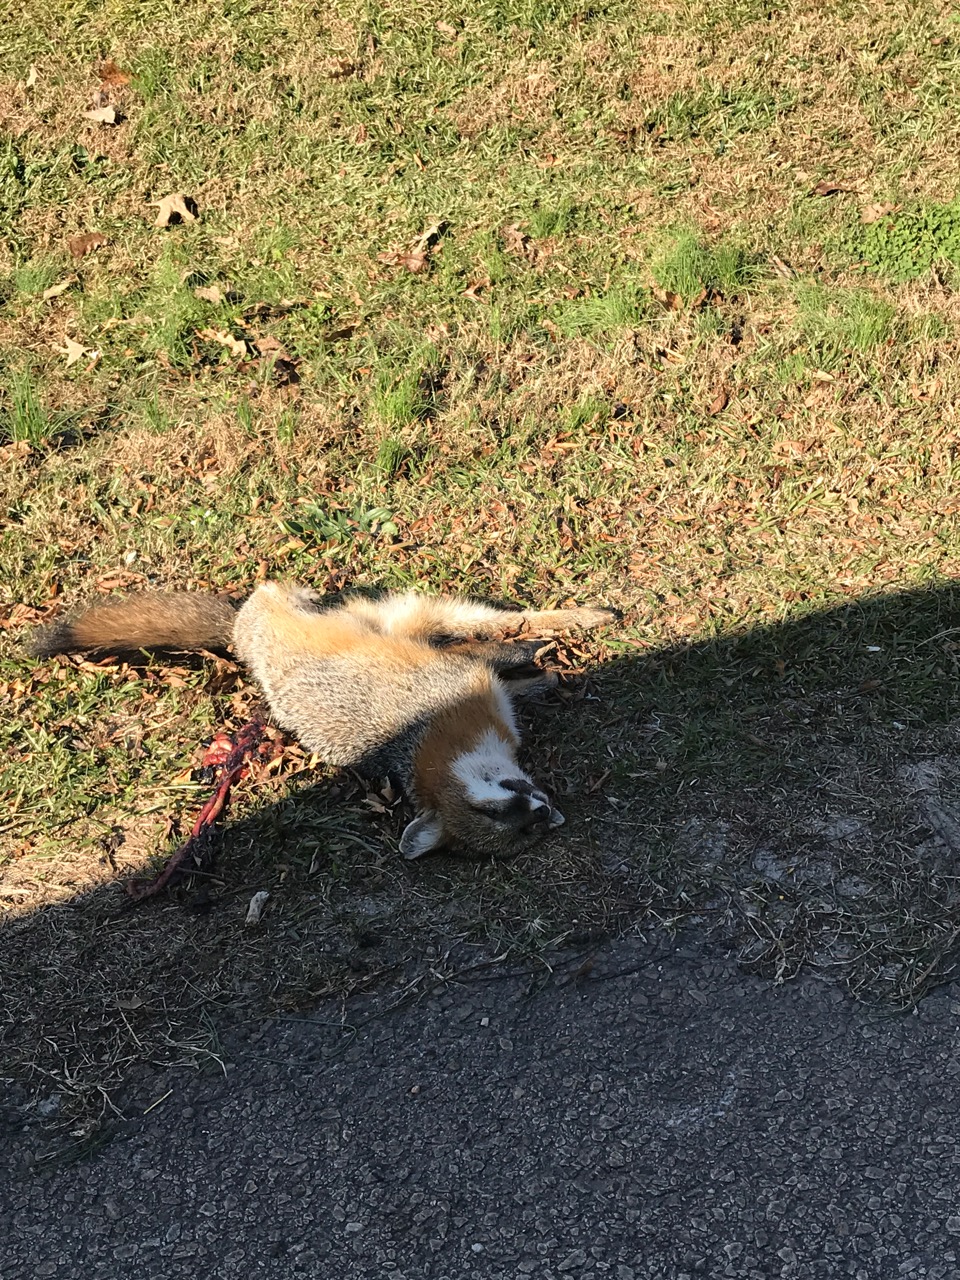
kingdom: Animalia
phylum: Chordata
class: Mammalia
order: Carnivora
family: Canidae
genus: Urocyon
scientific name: Urocyon cinereoargenteus
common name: Gray fox
